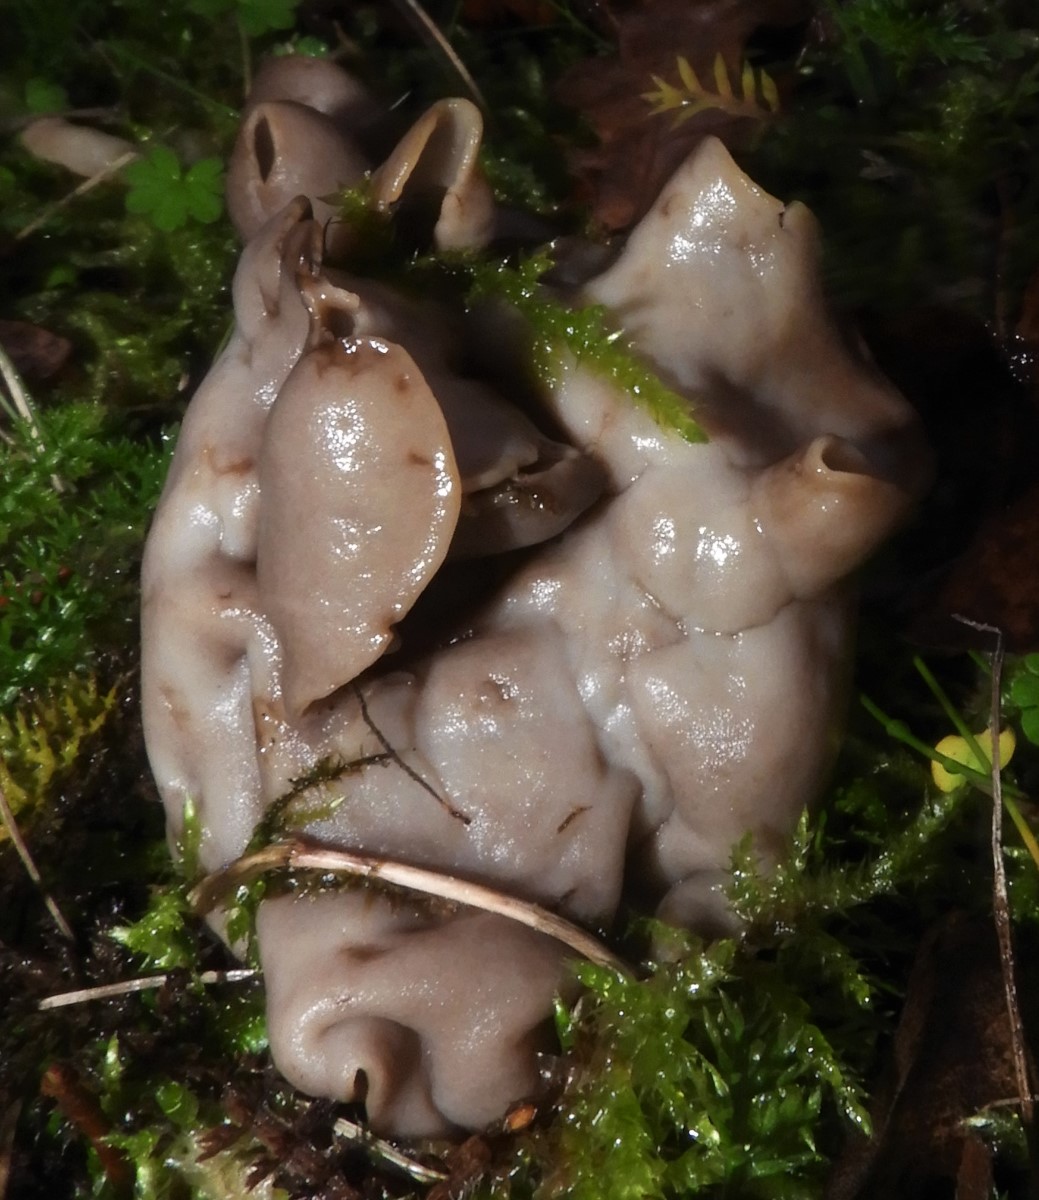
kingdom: Fungi
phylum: Ascomycota
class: Pezizomycetes
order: Pezizales
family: Helvellaceae
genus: Helvella
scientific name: Helvella lacunosa
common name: grubet foldhat
